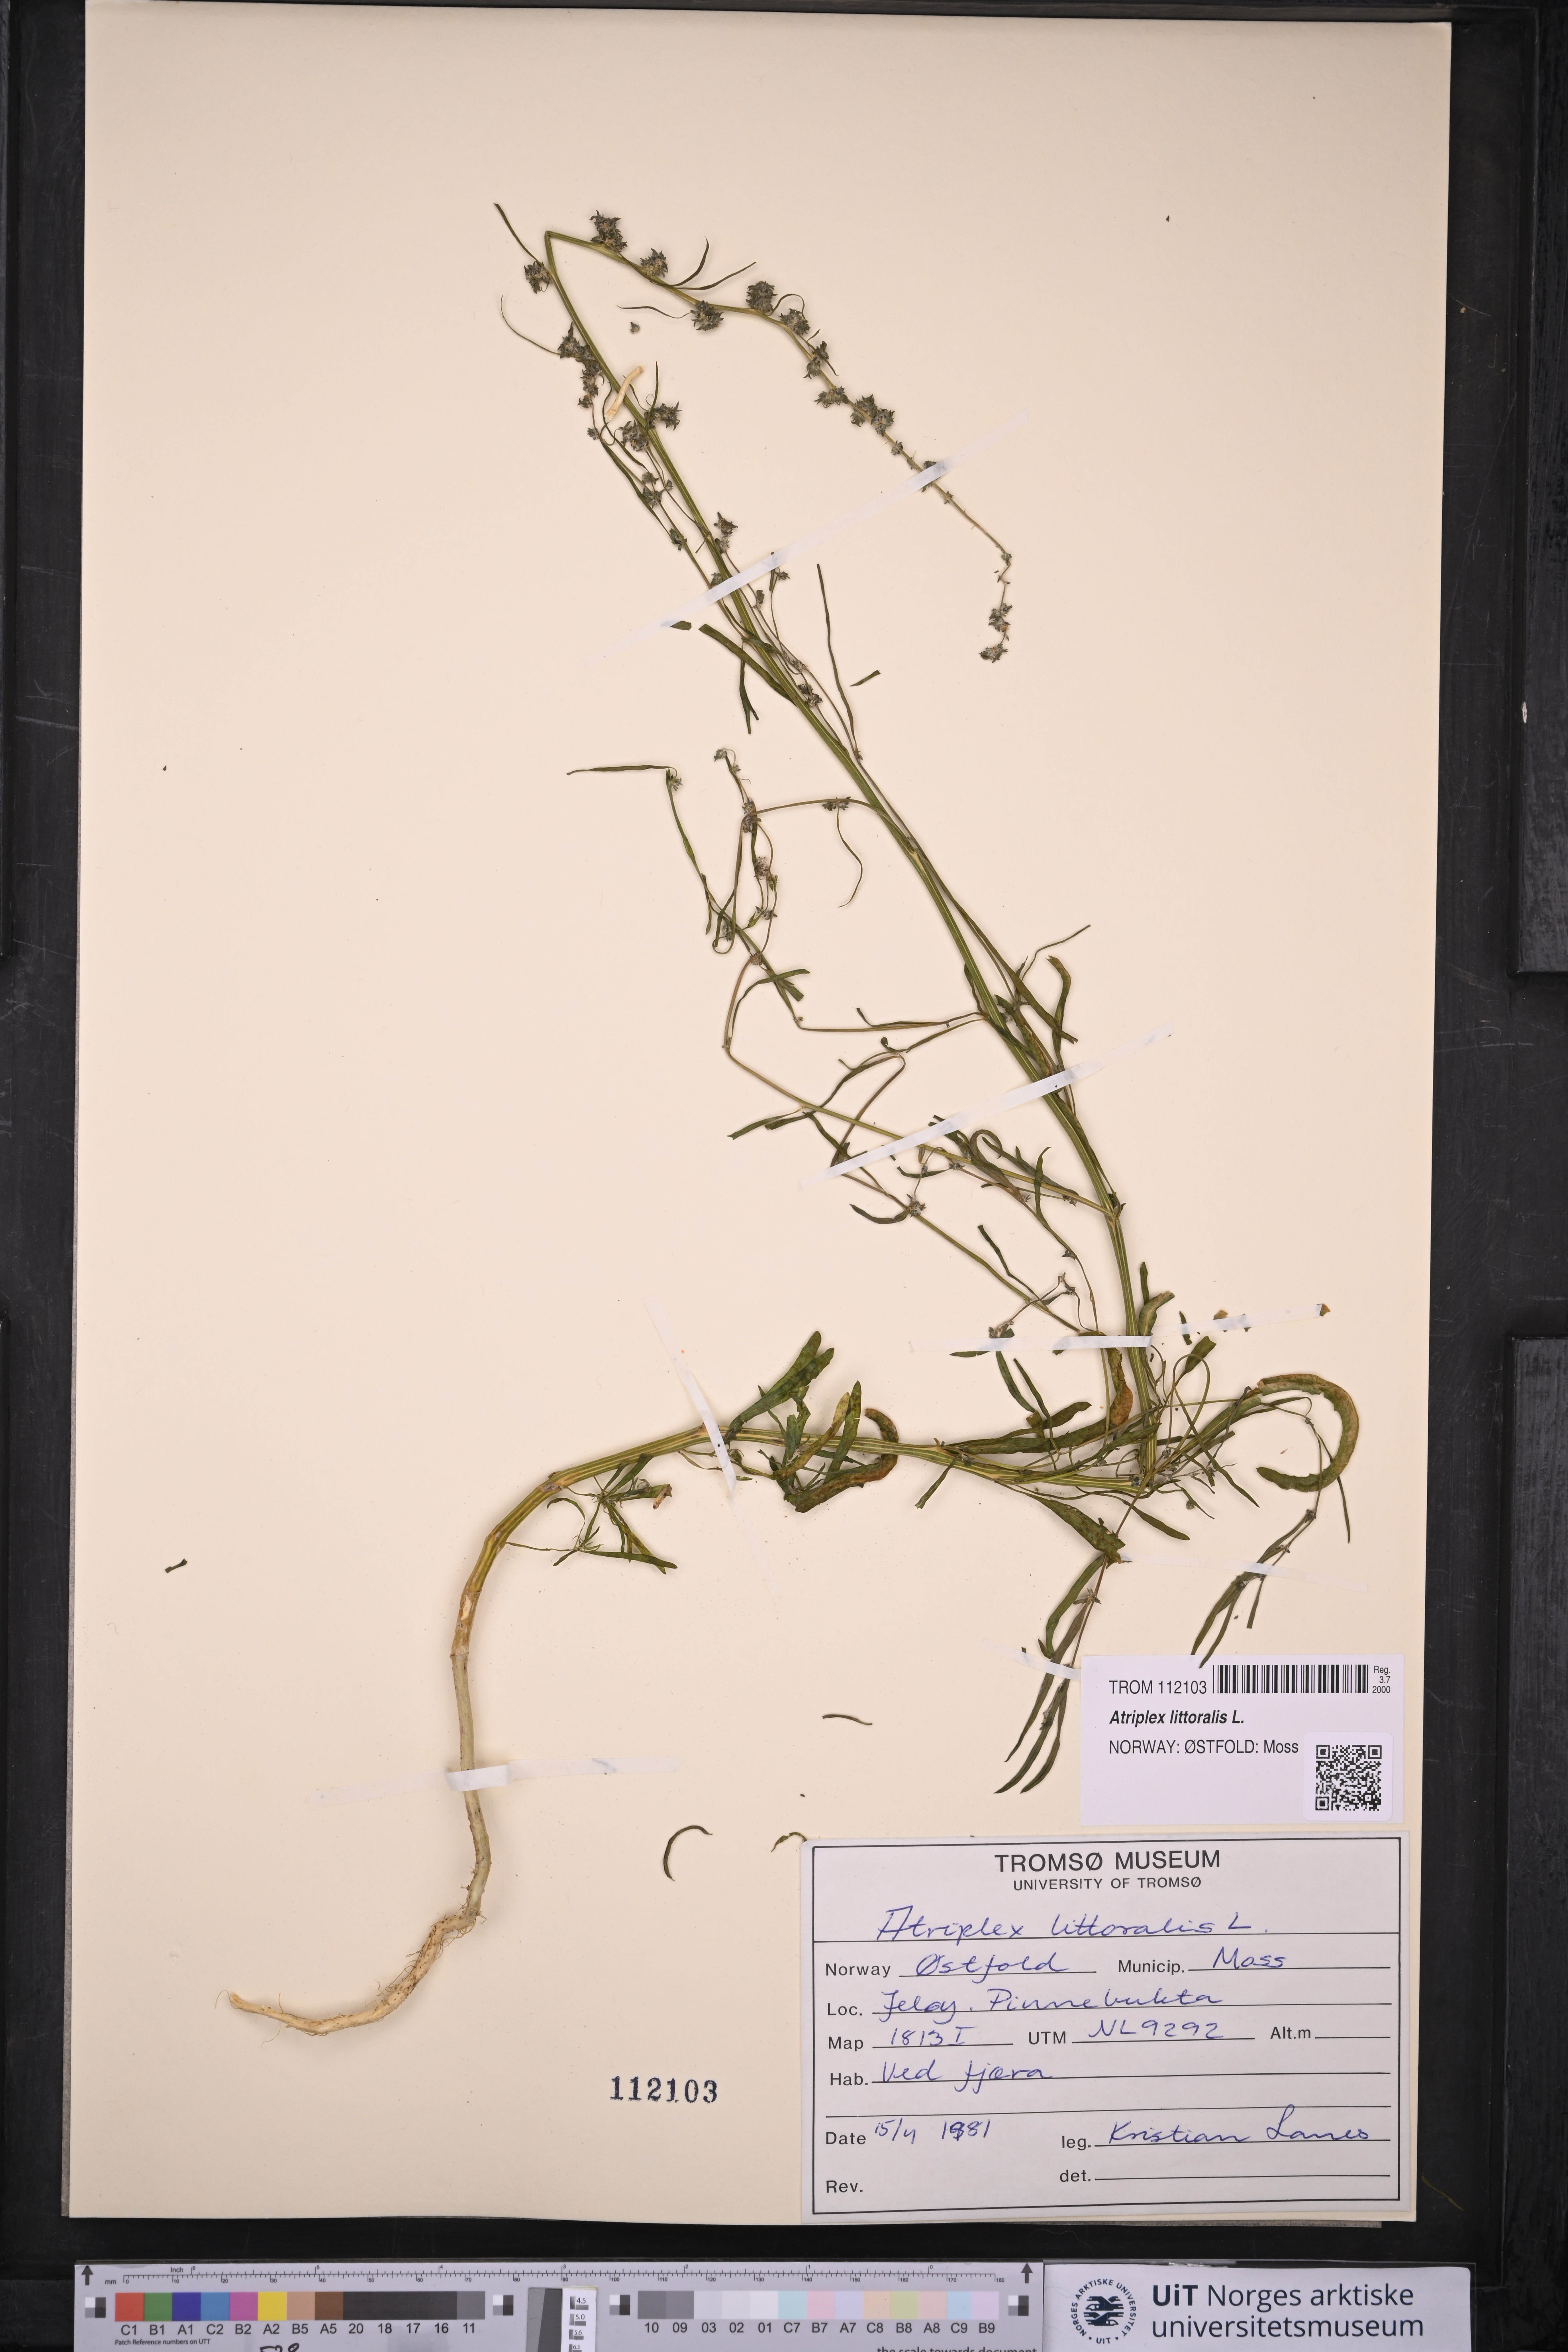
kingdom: Plantae
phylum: Tracheophyta
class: Magnoliopsida
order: Caryophyllales
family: Amaranthaceae
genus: Atriplex
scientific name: Atriplex littoralis
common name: Grass-leaved orache
